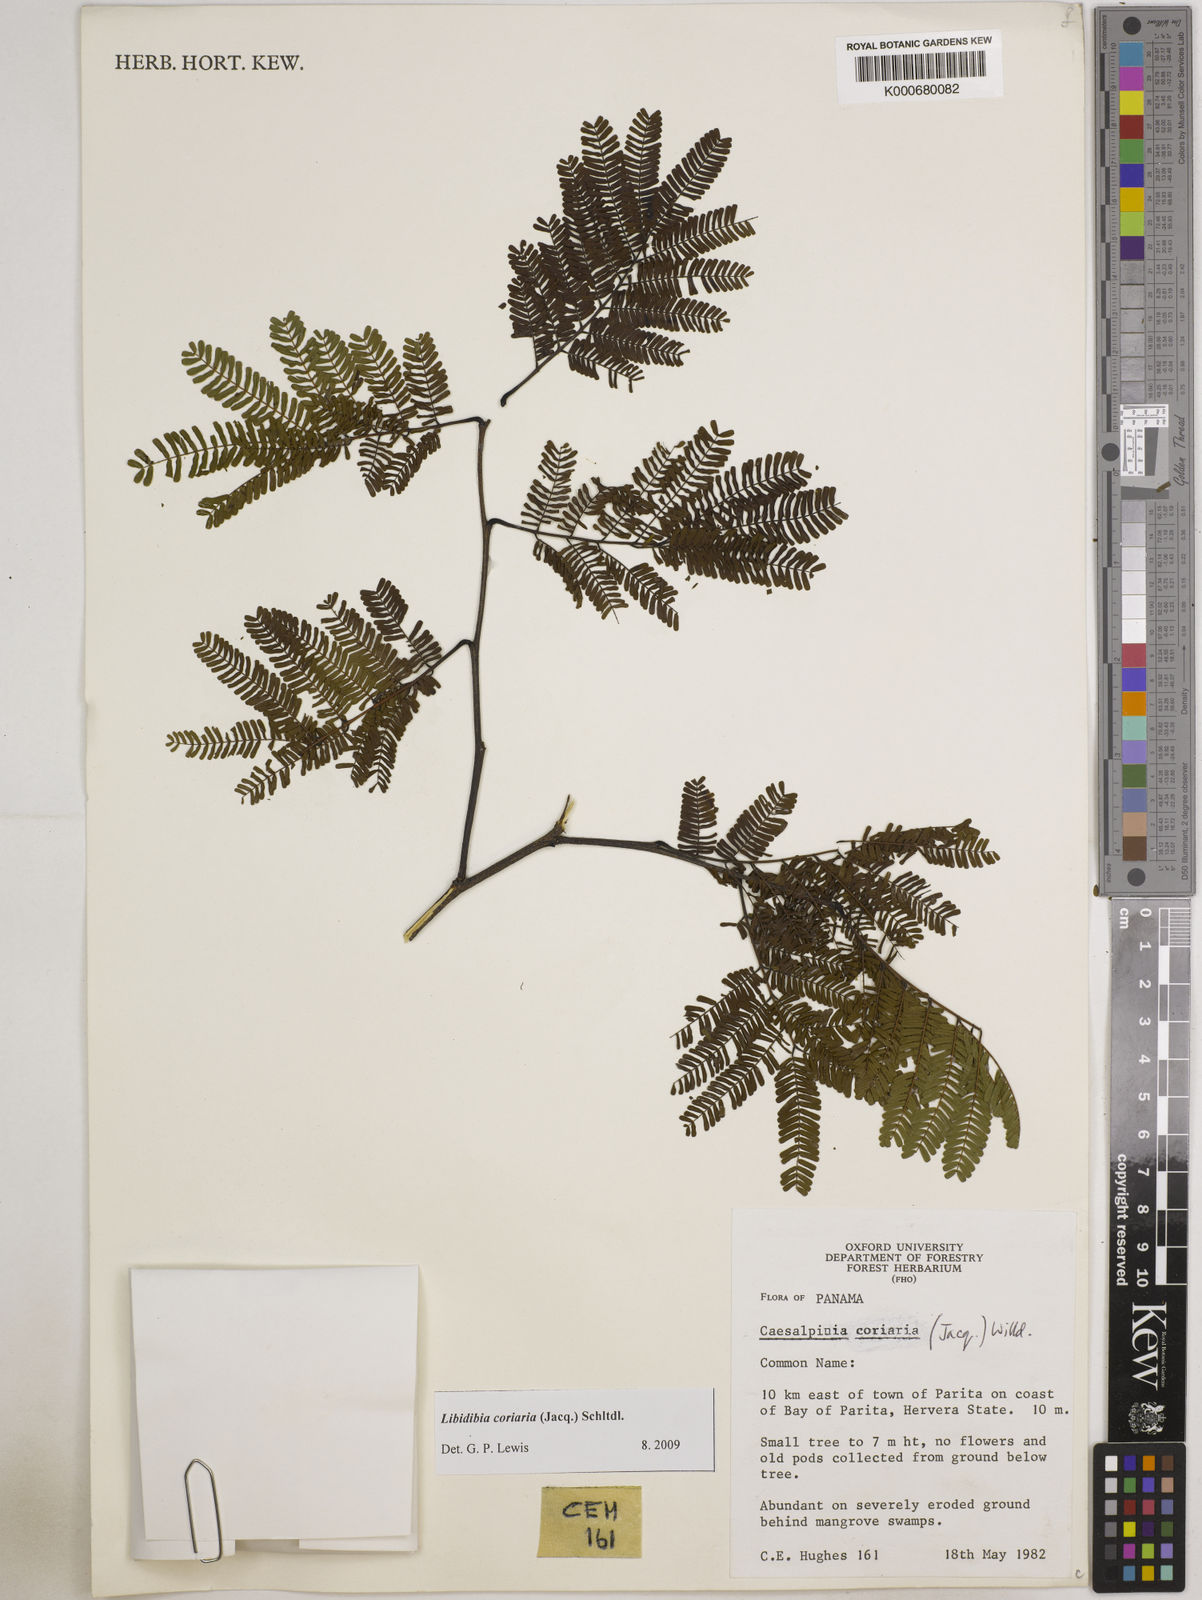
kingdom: Plantae
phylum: Tracheophyta
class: Magnoliopsida
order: Fabales
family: Fabaceae
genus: Libidibia
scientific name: Libidibia coriaria
